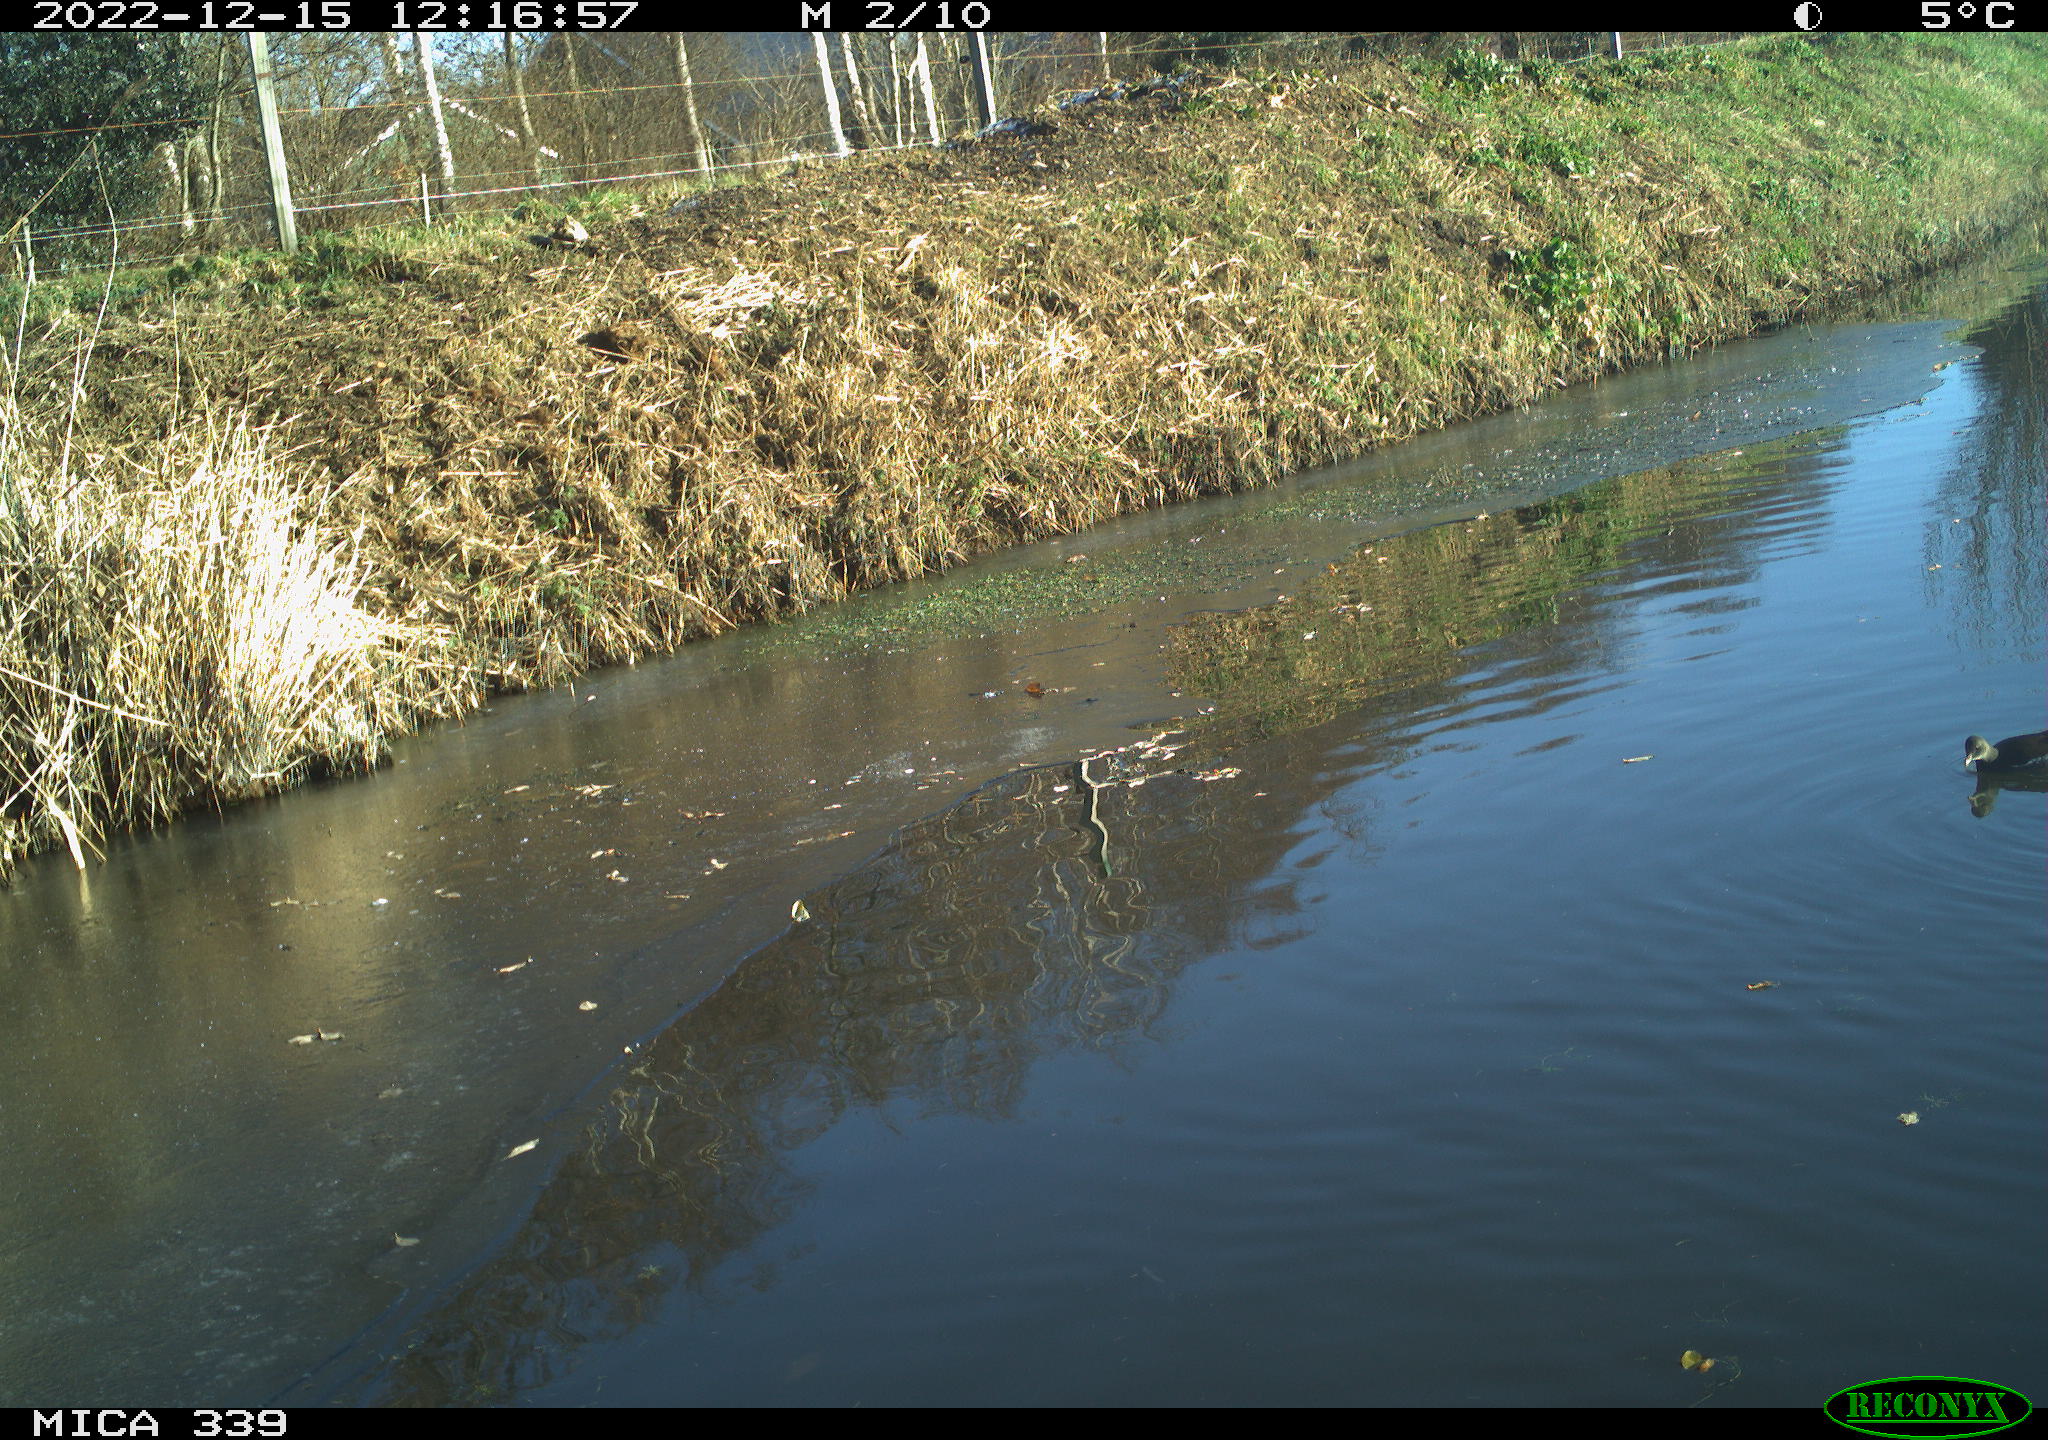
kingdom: Animalia
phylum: Chordata
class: Aves
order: Gruiformes
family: Rallidae
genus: Gallinula
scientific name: Gallinula chloropus
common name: Common moorhen
